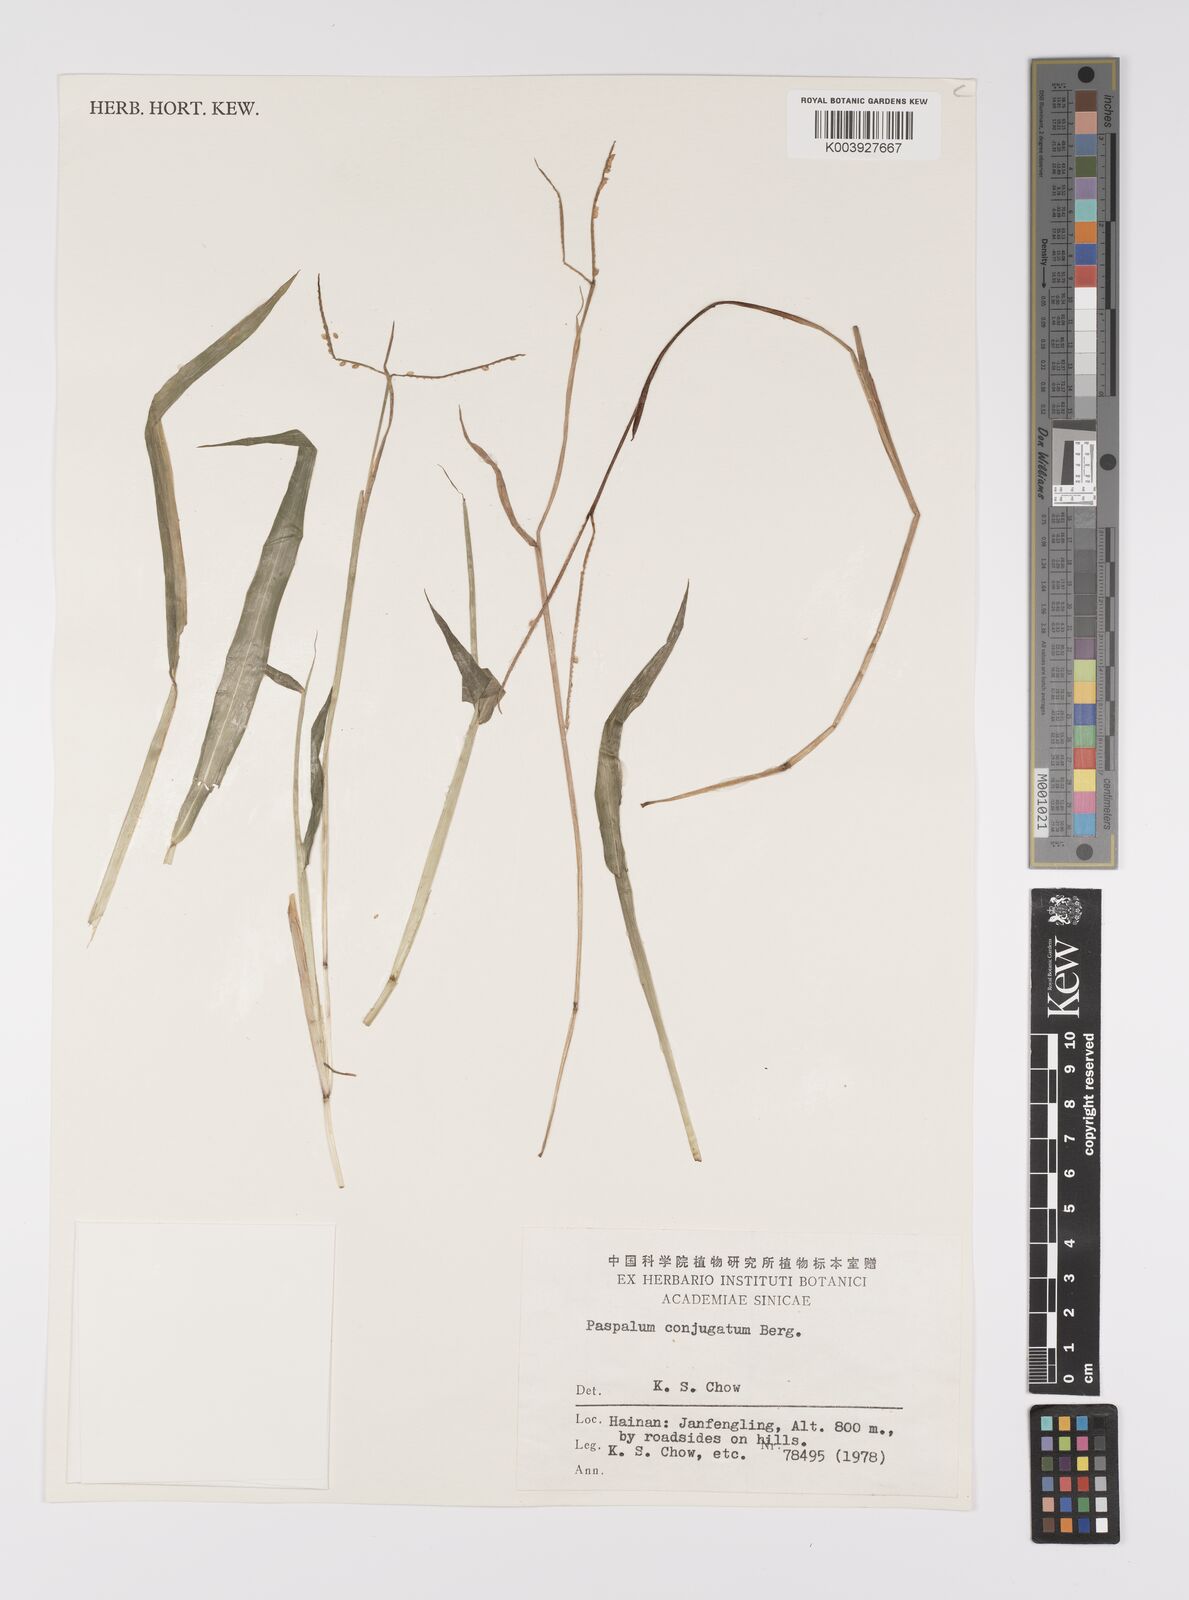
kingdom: Plantae
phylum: Tracheophyta
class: Liliopsida
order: Poales
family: Poaceae
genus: Paspalum
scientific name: Paspalum conjugatum
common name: Hilograss
